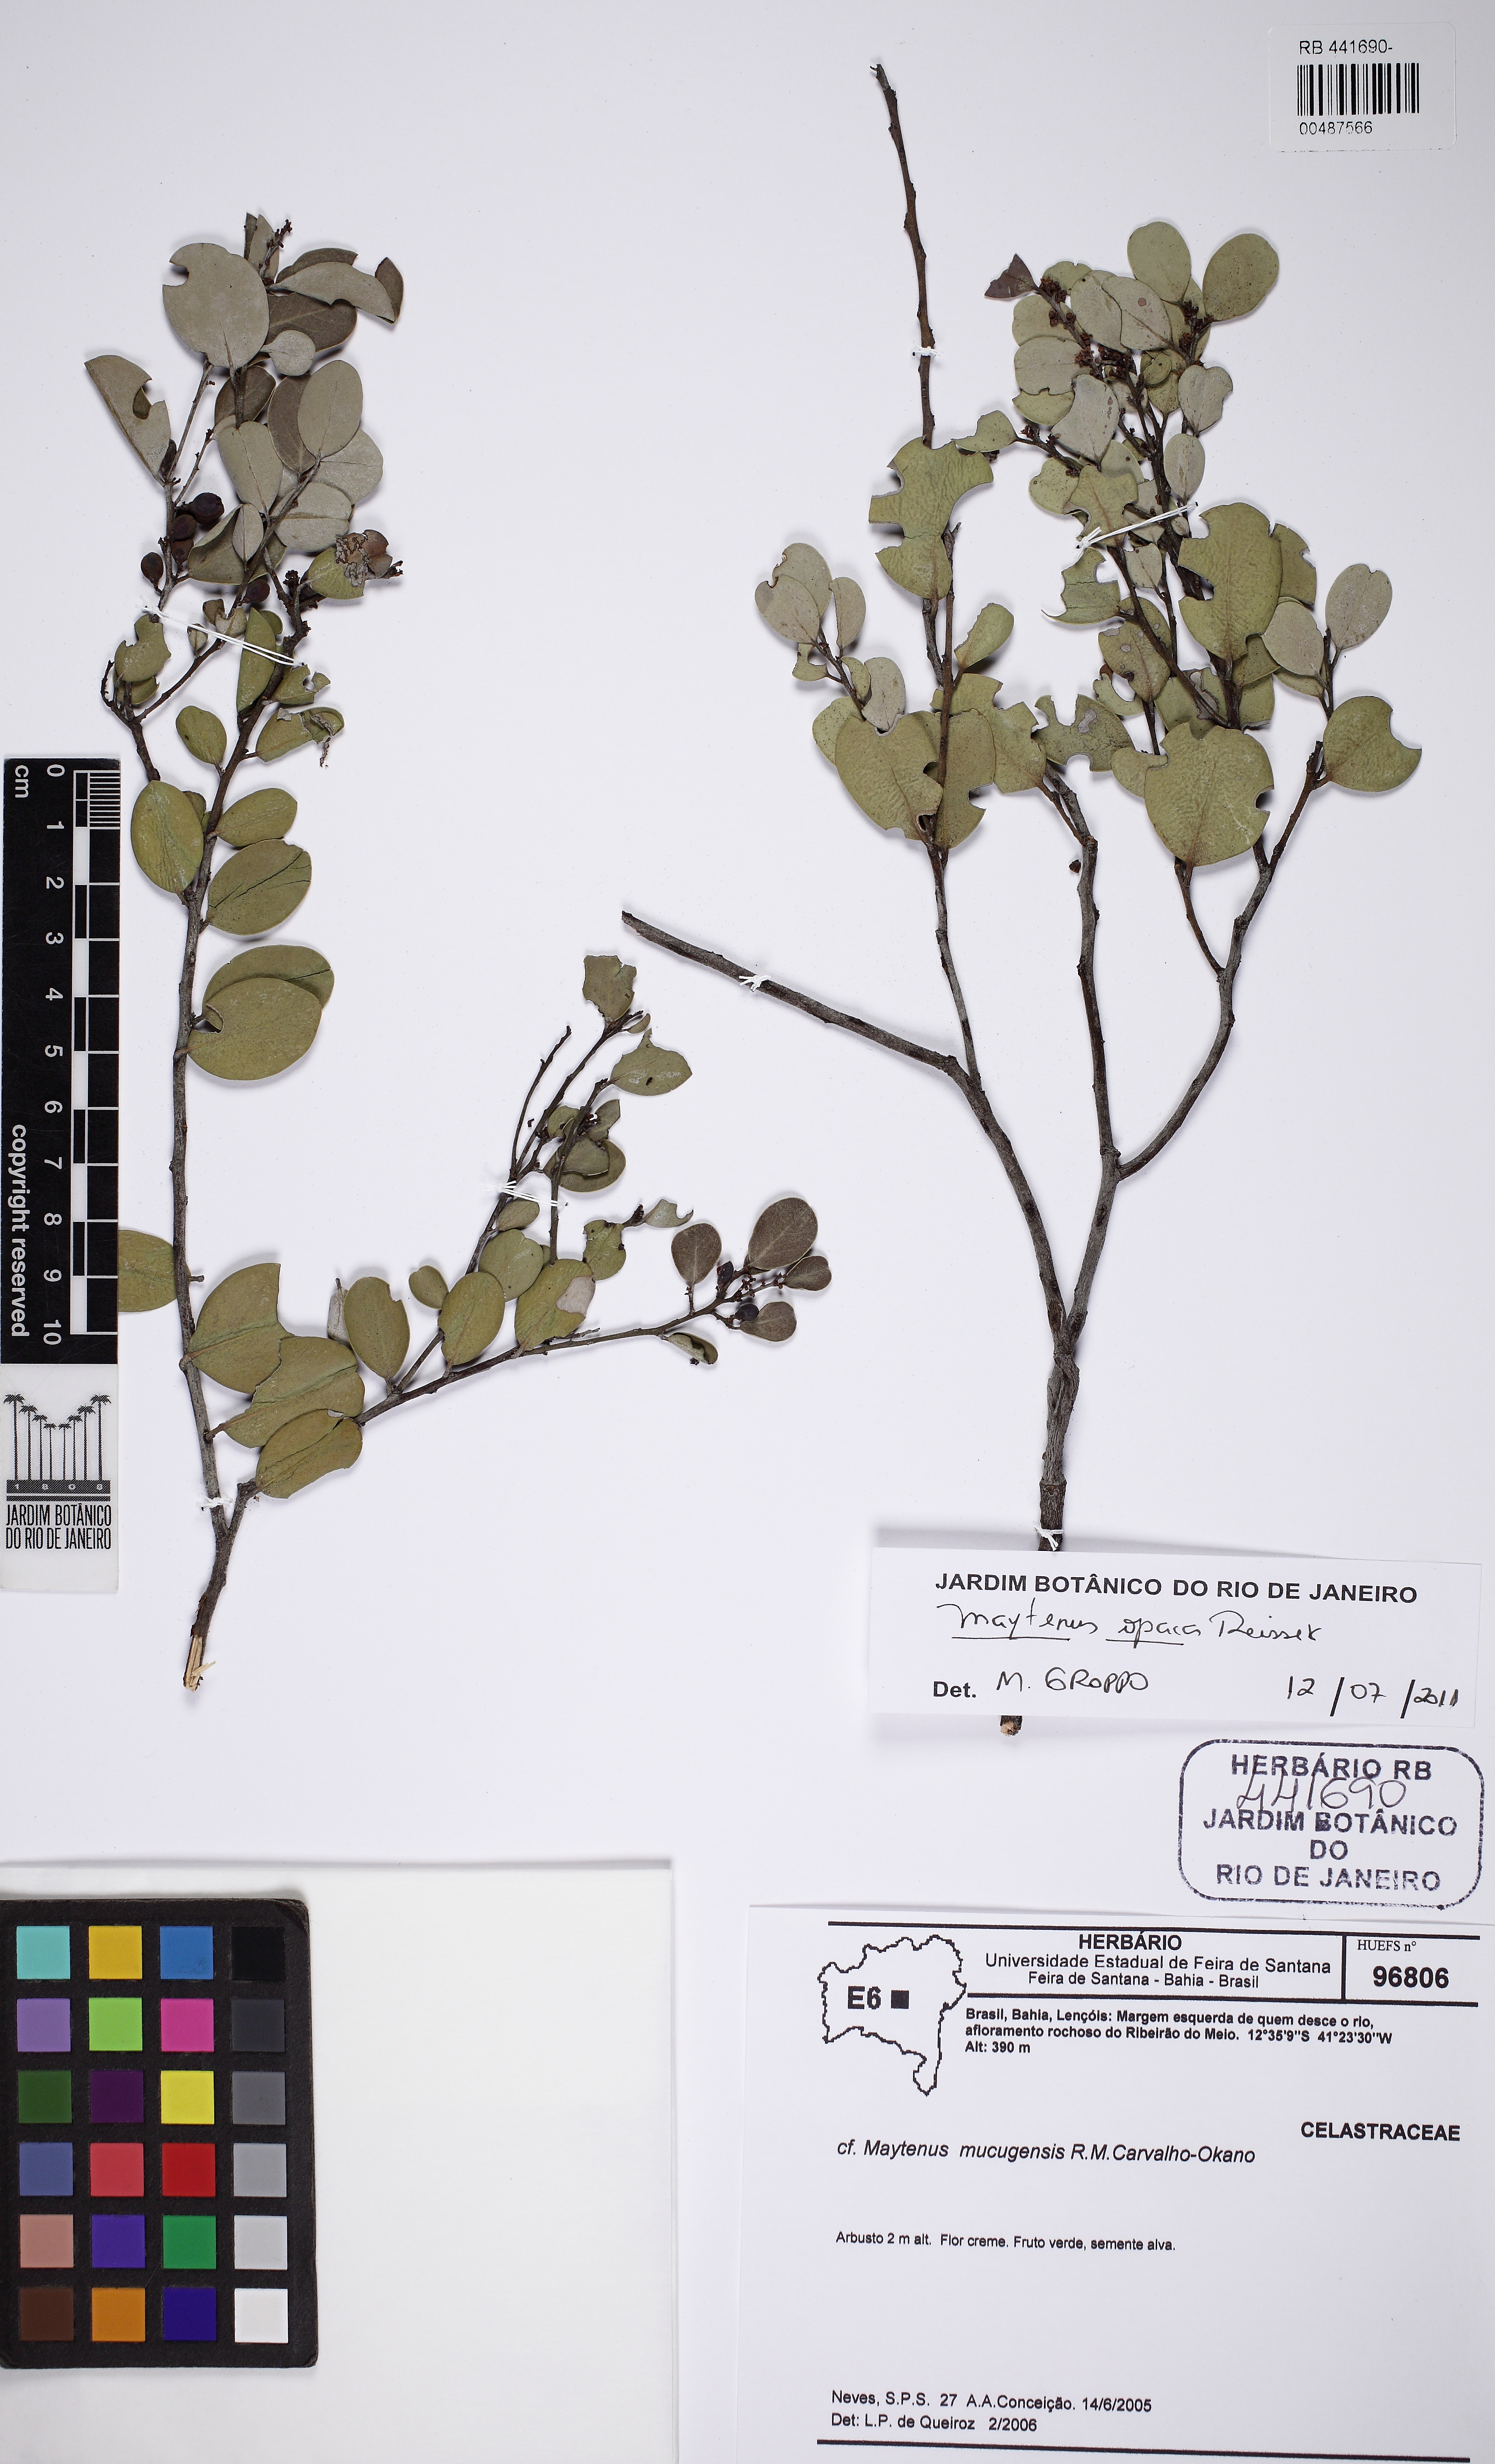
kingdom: Plantae
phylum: Tracheophyta
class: Magnoliopsida
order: Celastrales
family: Celastraceae
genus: Monteverdia
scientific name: Monteverdia mucugensis
